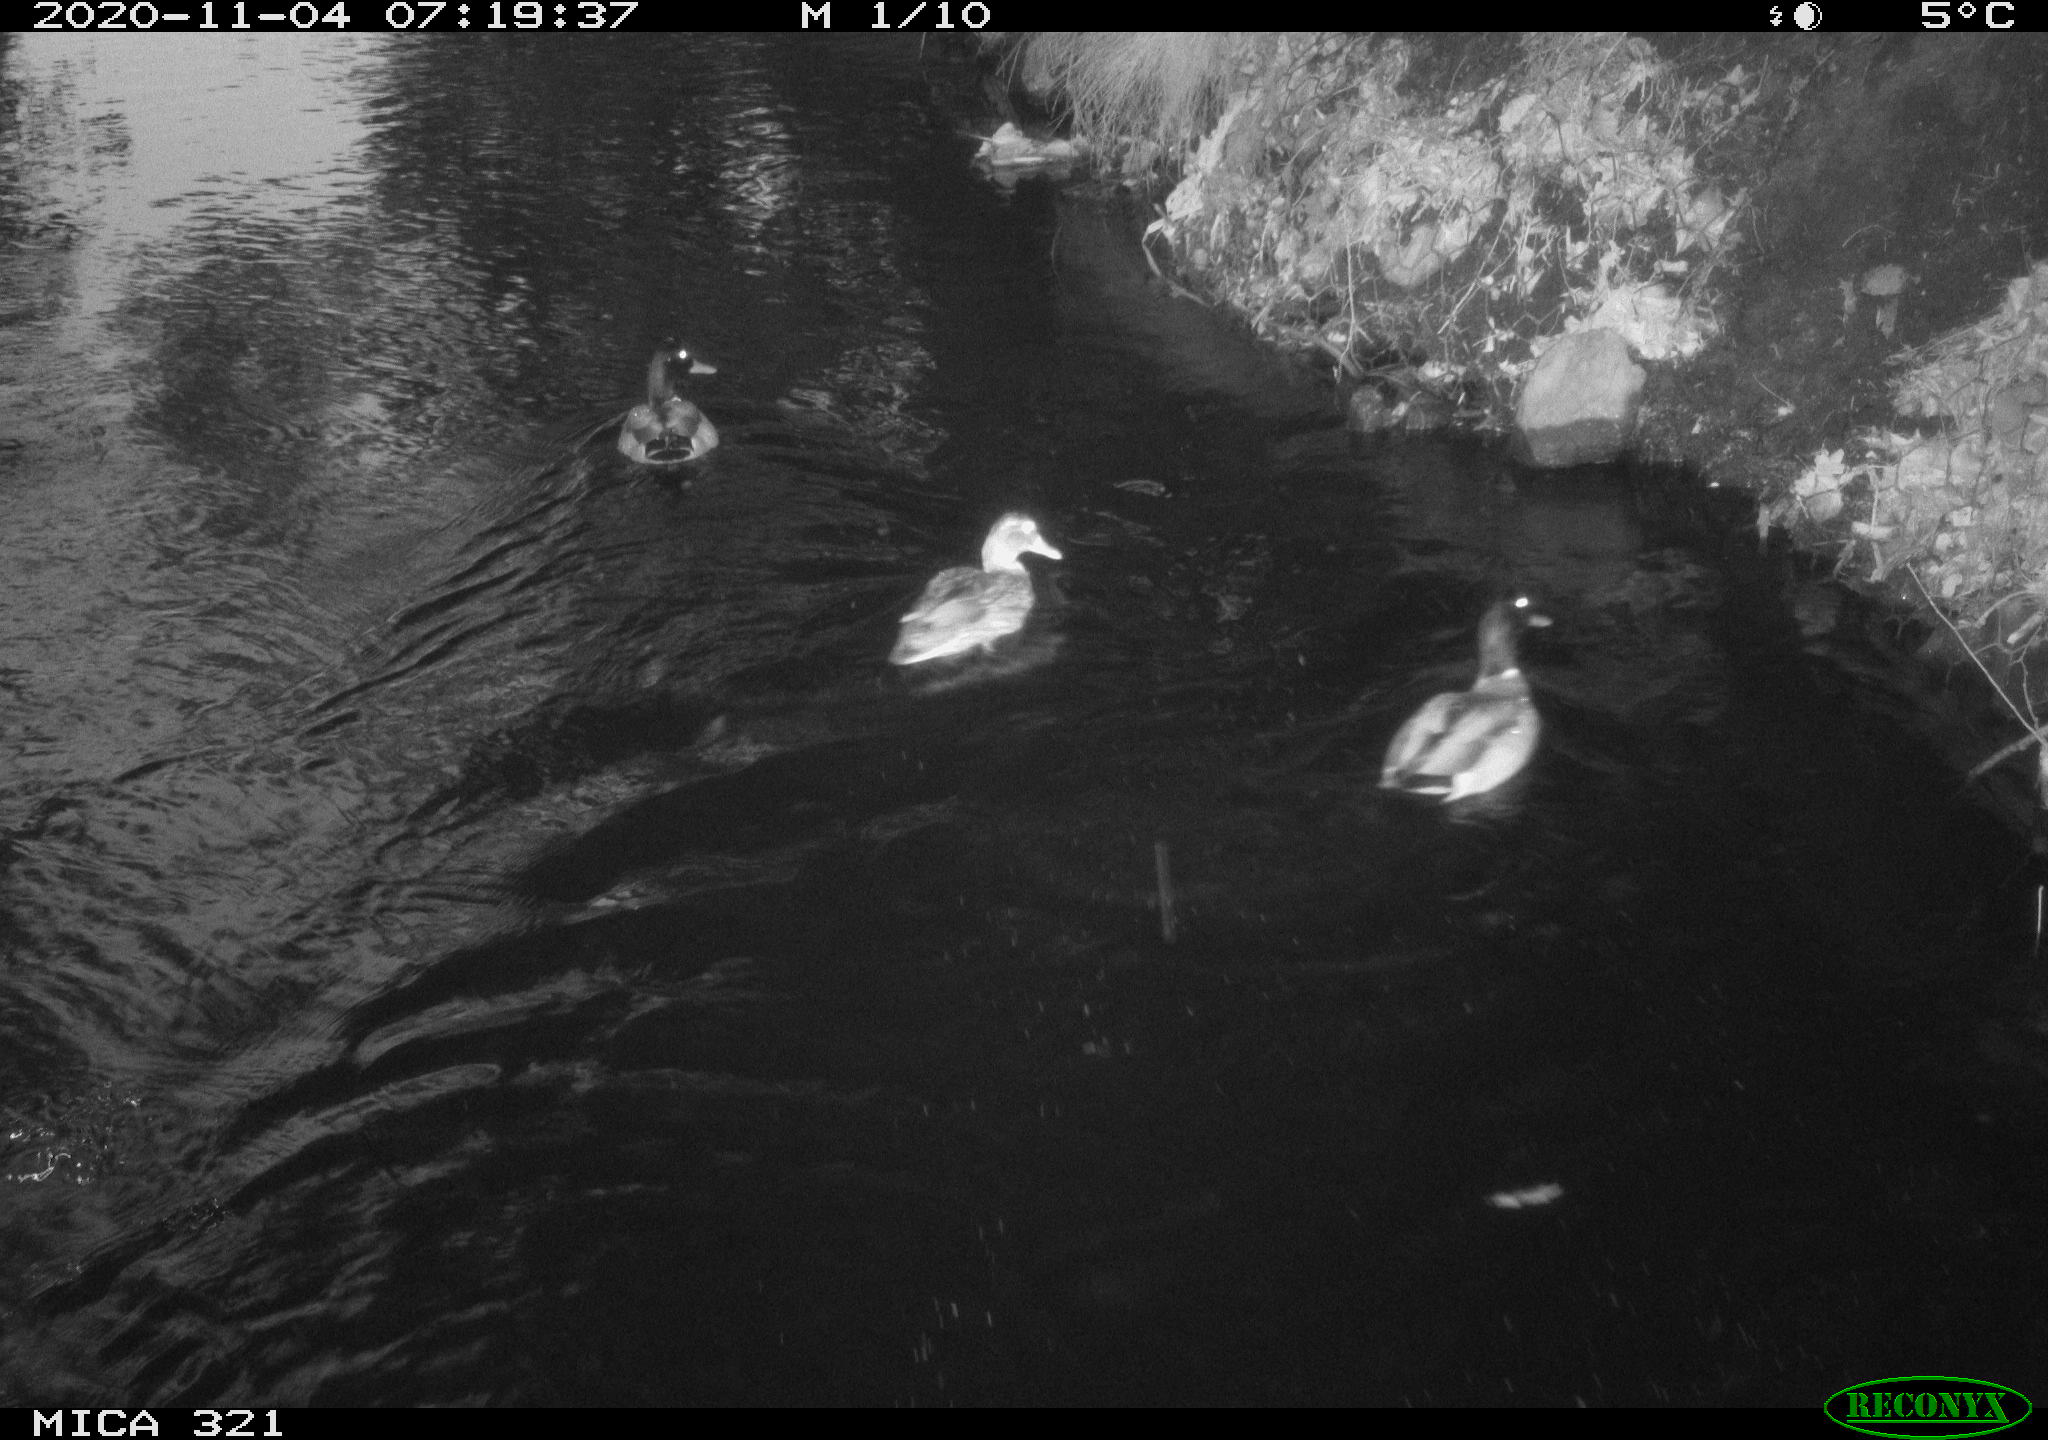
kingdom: Animalia
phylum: Chordata
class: Aves
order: Anseriformes
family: Anatidae
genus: Anas
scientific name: Anas platyrhynchos
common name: Mallard
